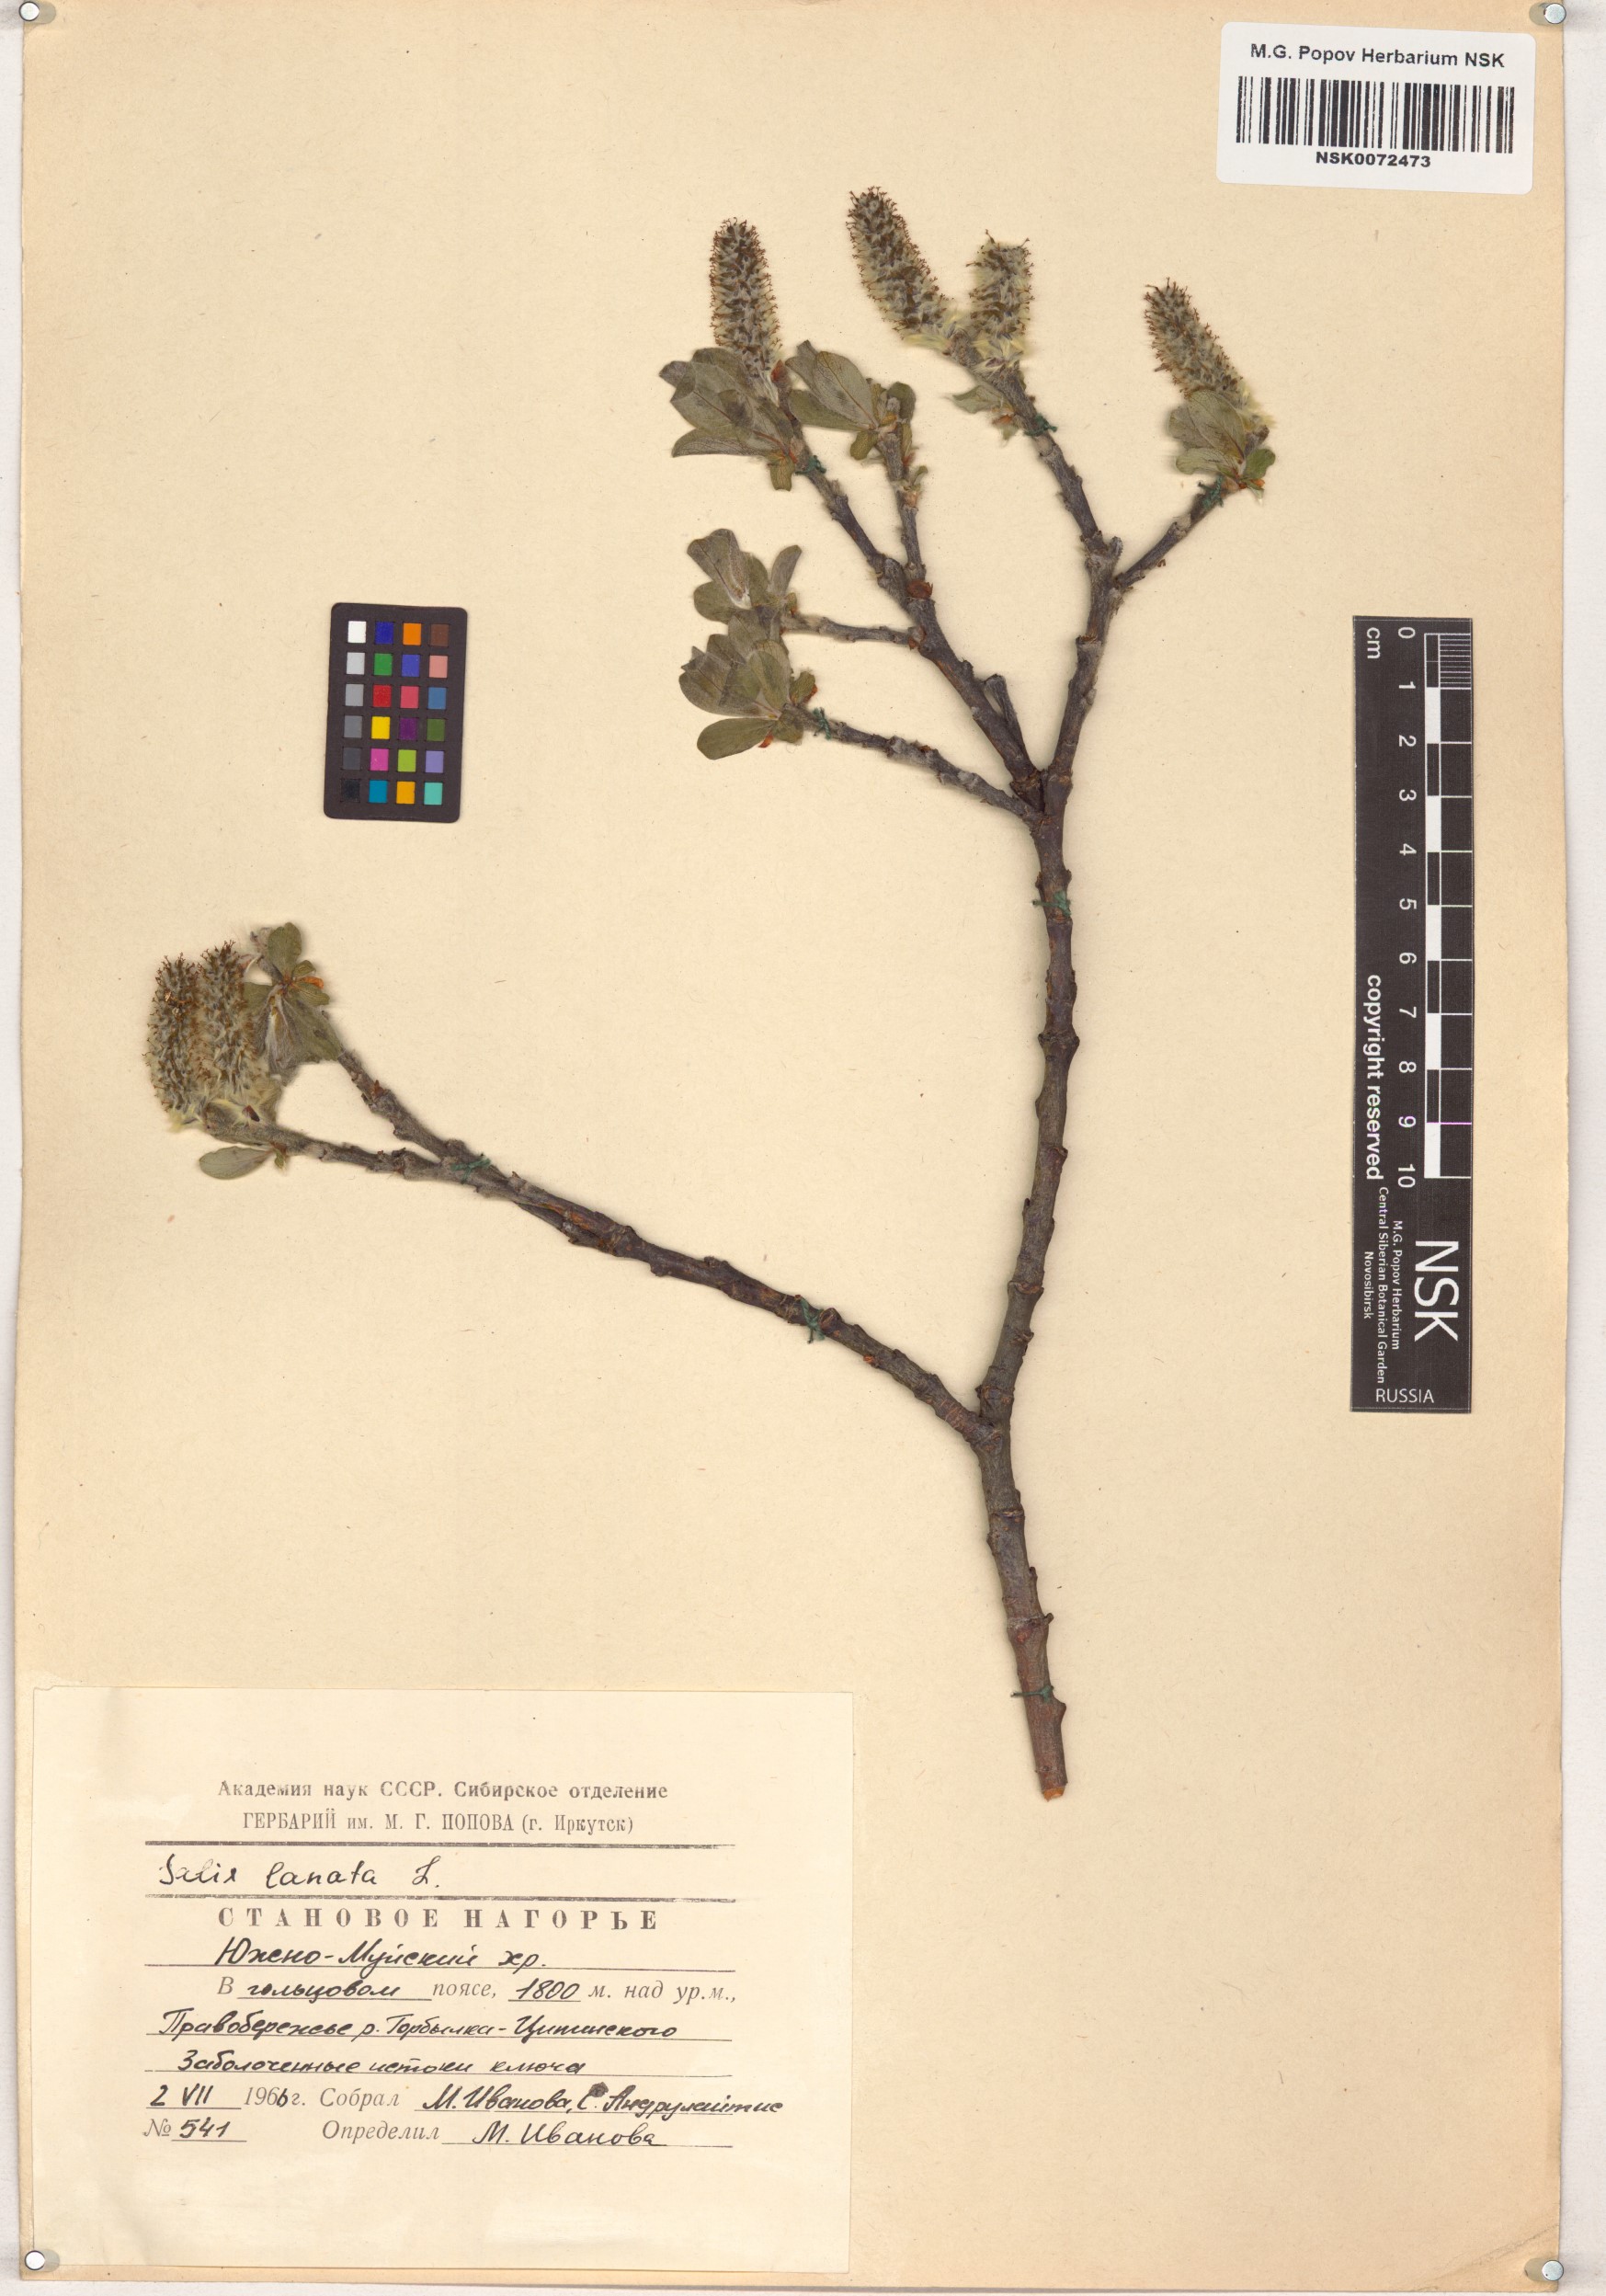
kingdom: Plantae
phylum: Tracheophyta
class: Magnoliopsida
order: Malpighiales
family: Salicaceae
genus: Salix
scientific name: Salix lanata
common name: Woolly willow
